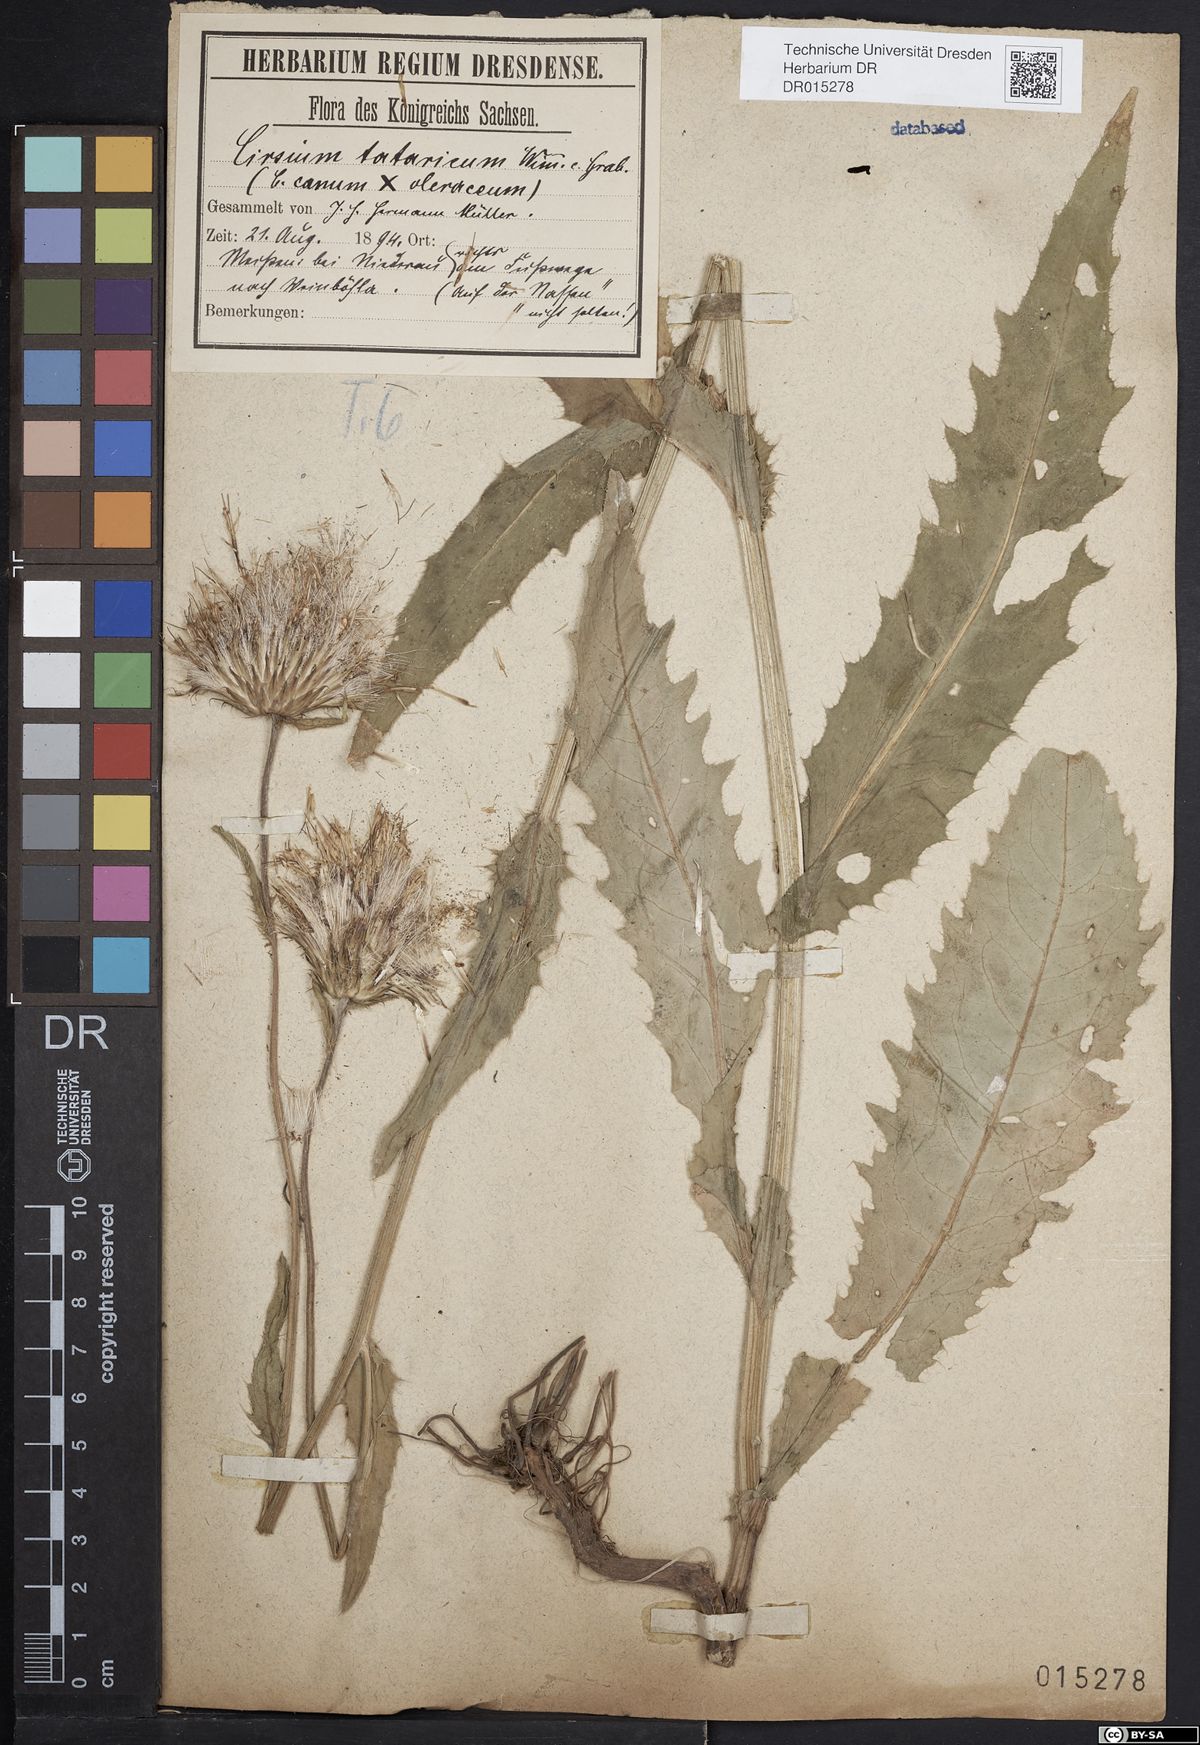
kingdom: Plantae
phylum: Tracheophyta
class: Magnoliopsida
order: Asterales
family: Asteraceae
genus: Cirsium
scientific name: Cirsium tataricum
